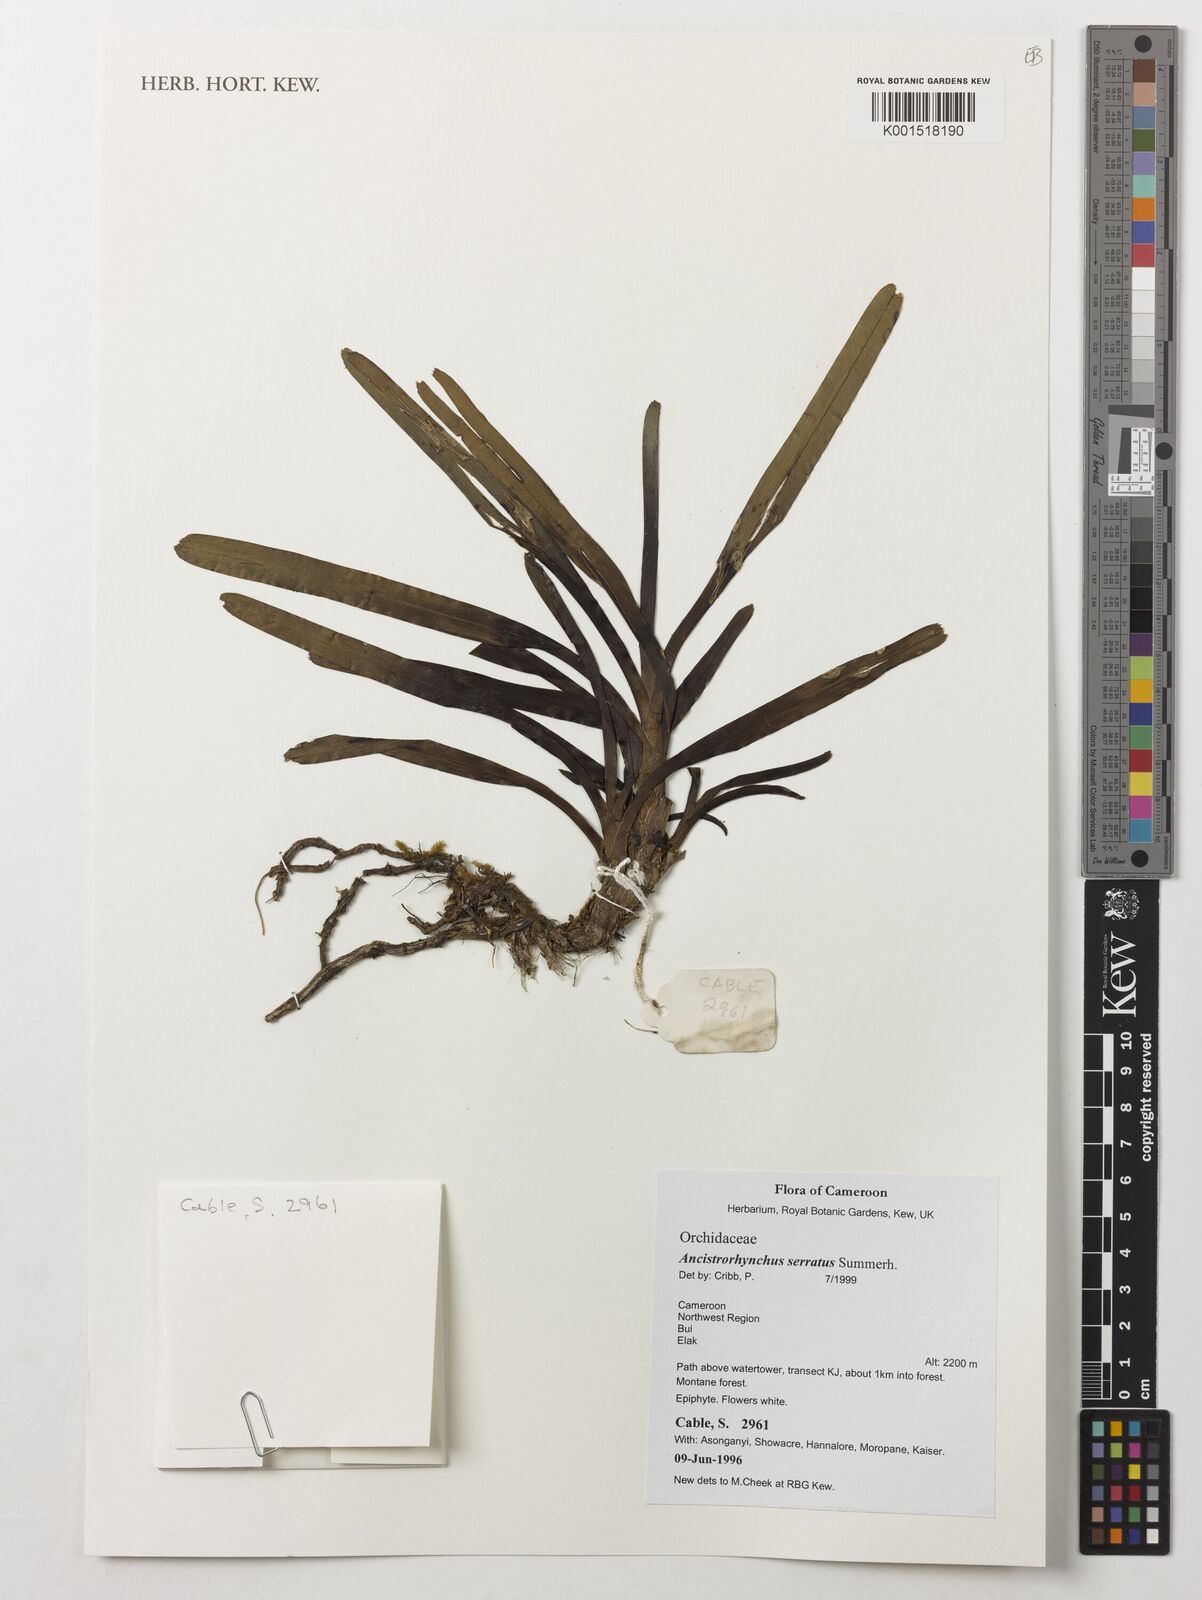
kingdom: Plantae
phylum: Tracheophyta
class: Liliopsida
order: Asparagales
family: Orchidaceae
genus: Ancistrorhynchus
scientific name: Ancistrorhynchus serratus
